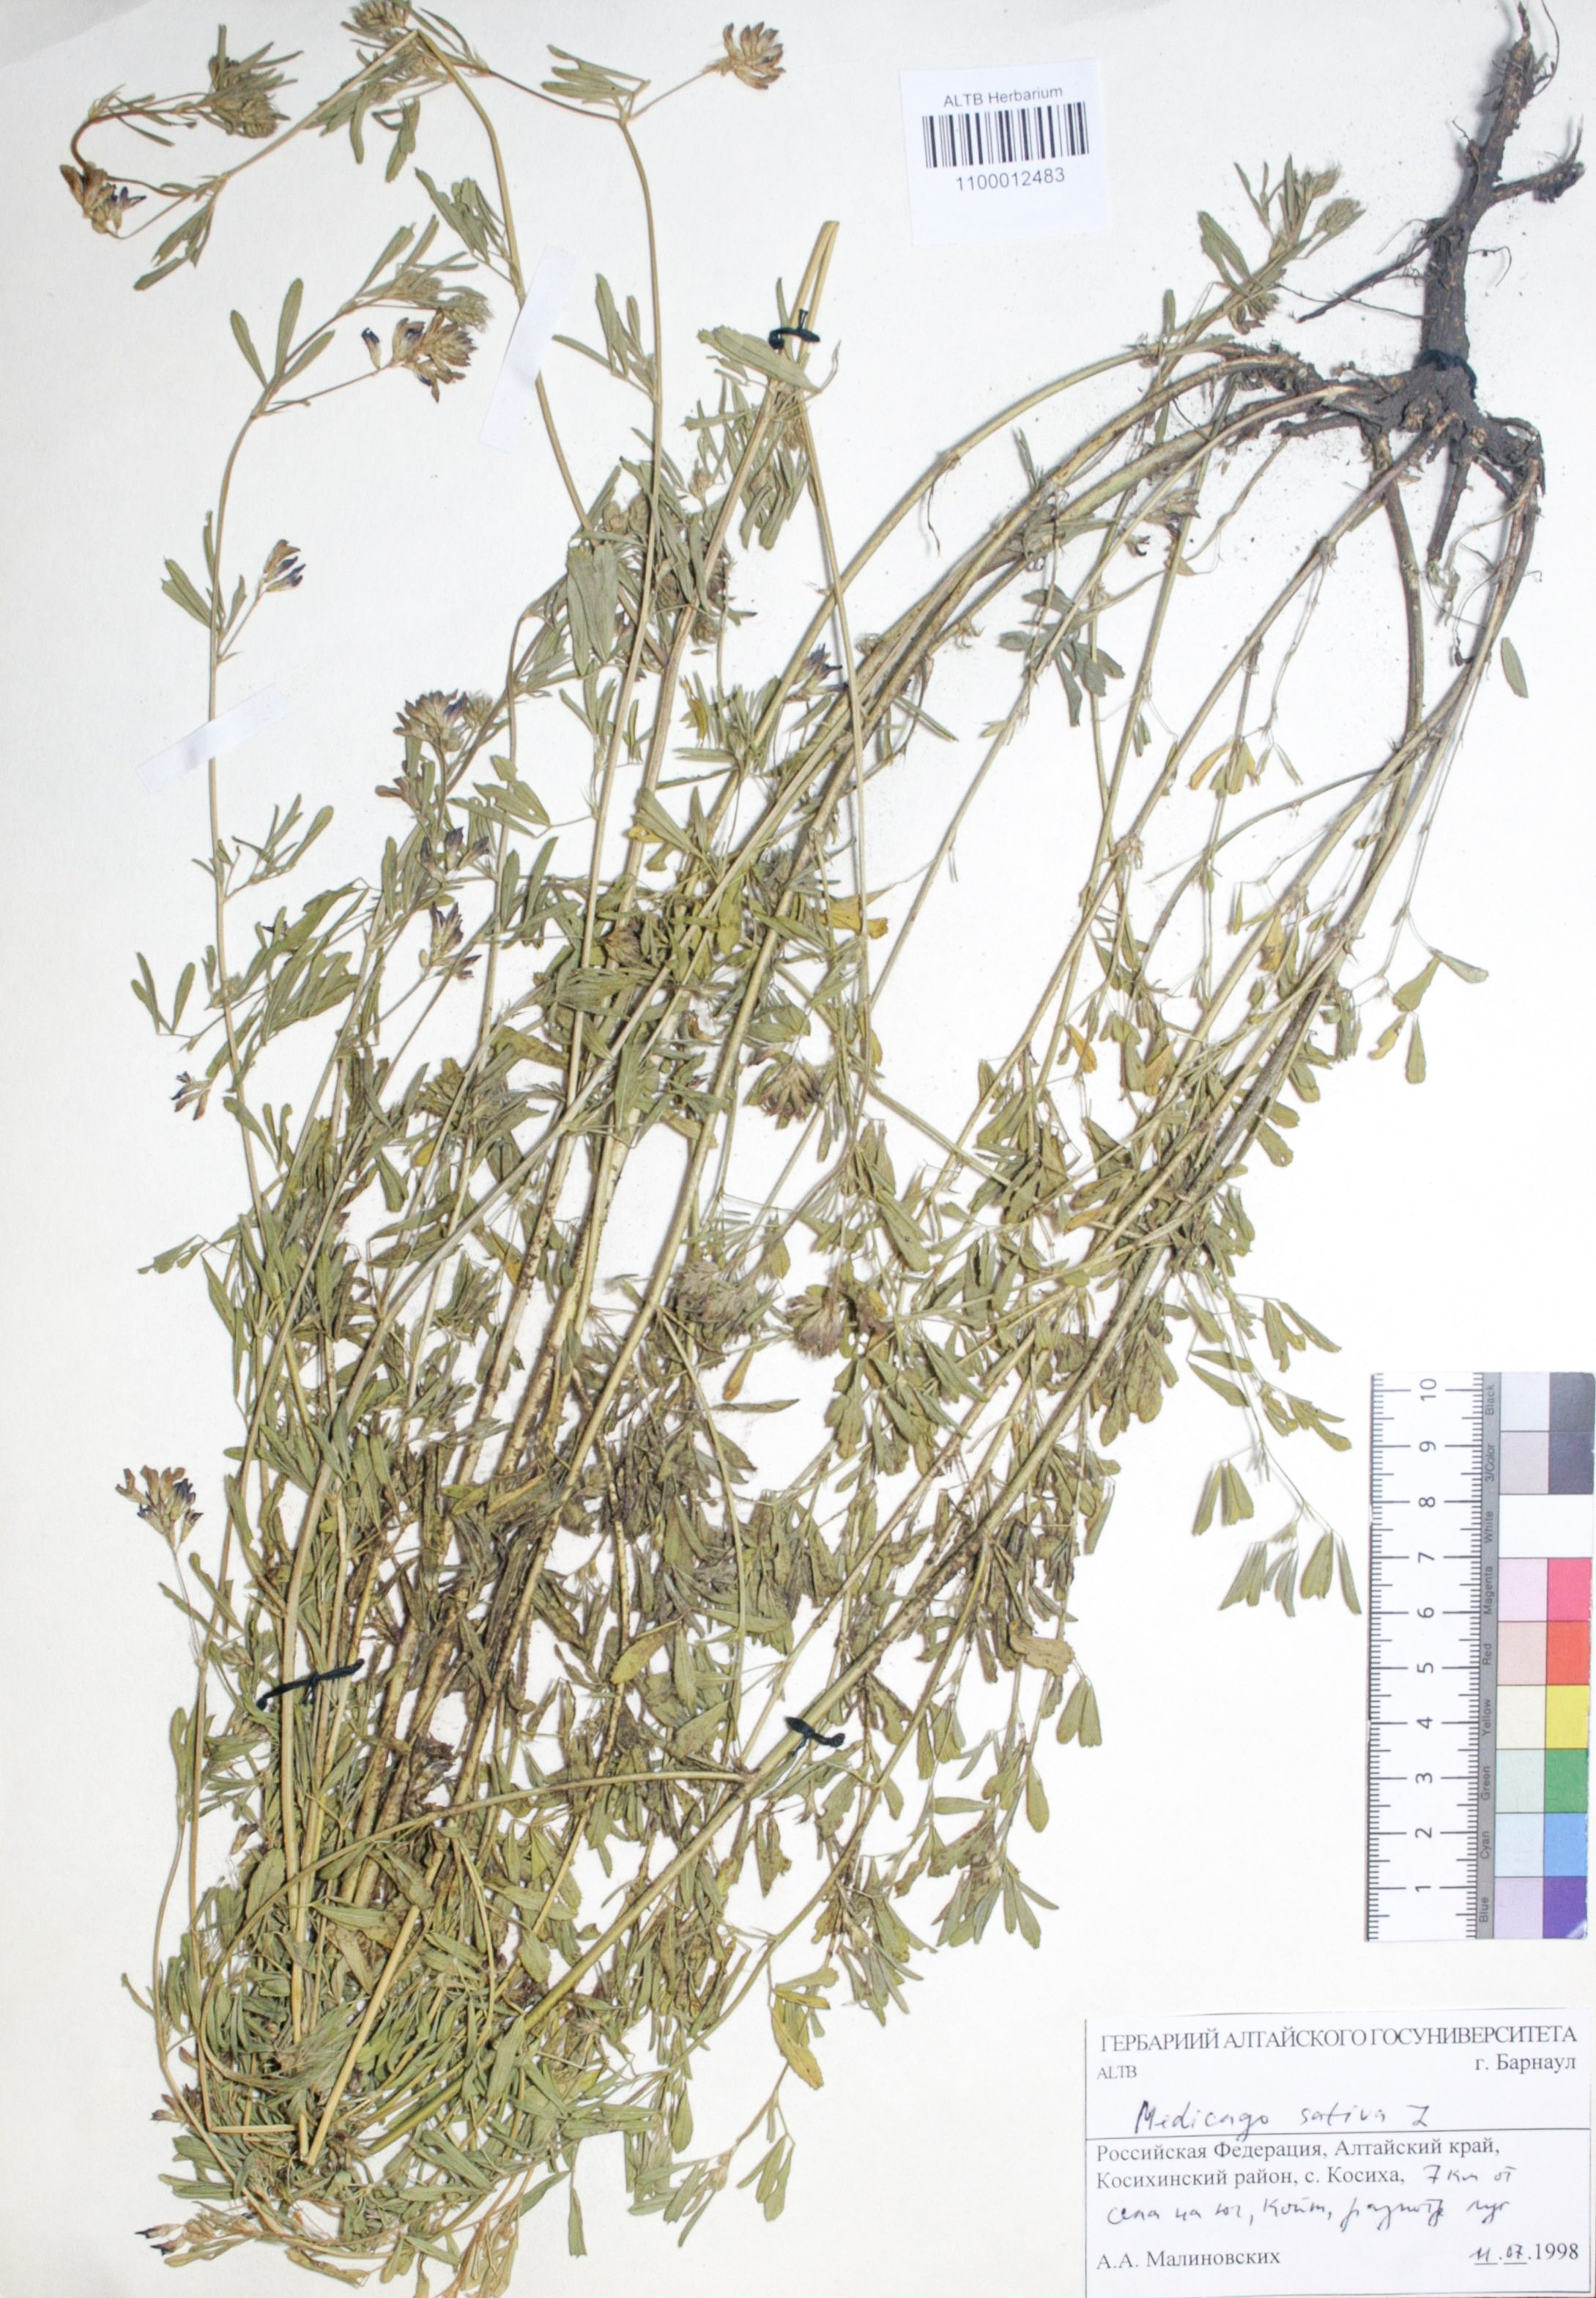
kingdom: Plantae
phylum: Tracheophyta
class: Magnoliopsida
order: Fabales
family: Fabaceae
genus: Medicago
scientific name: Medicago sativa
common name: Alfalfa
